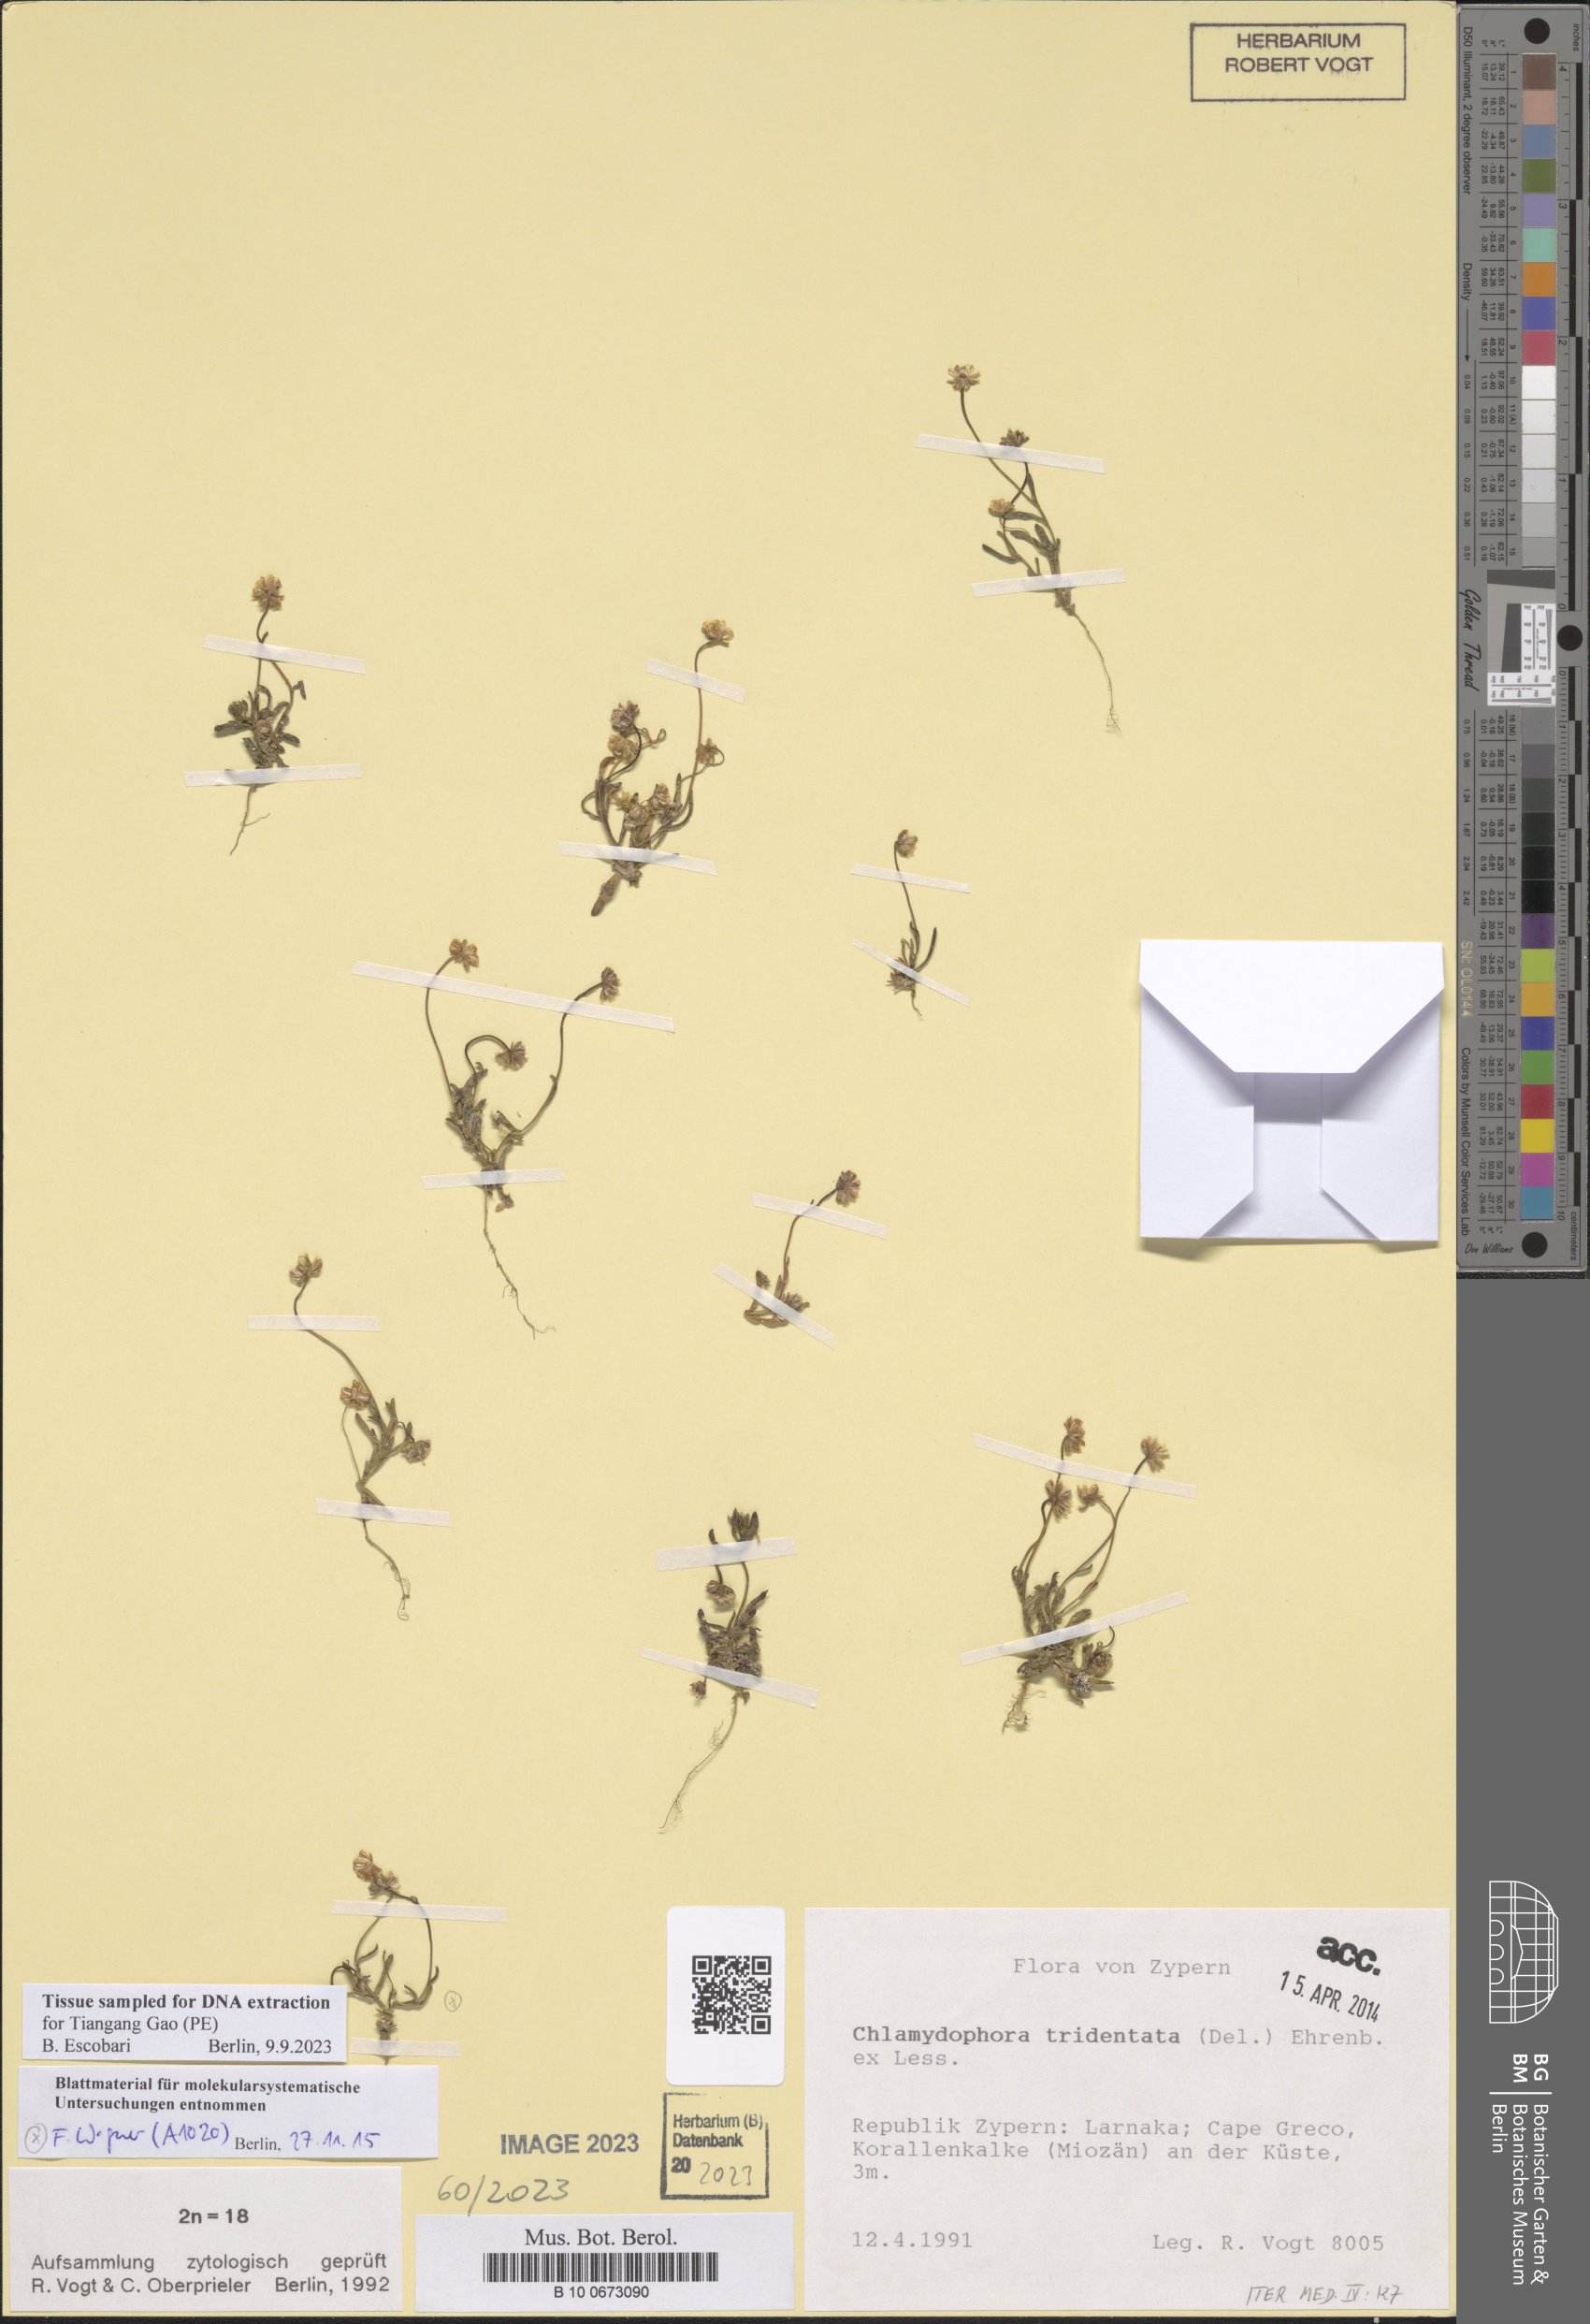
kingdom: Plantae
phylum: Tracheophyta
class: Magnoliopsida
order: Asterales
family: Asteraceae
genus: Chlamydophora
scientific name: Chlamydophora tridentata
